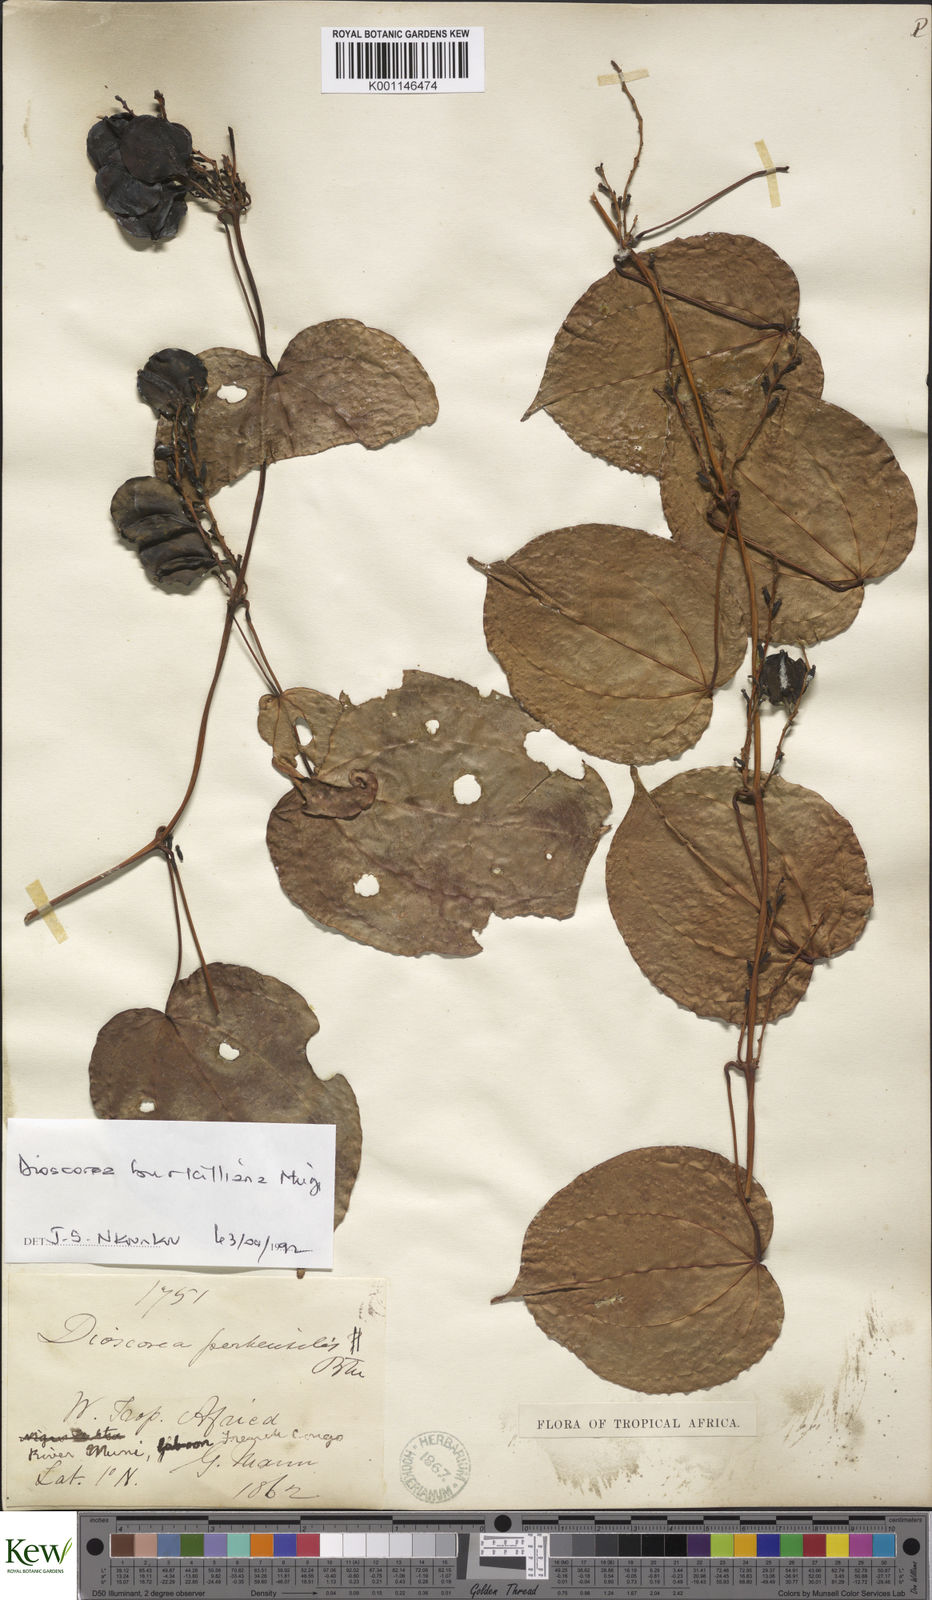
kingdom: Plantae
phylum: Tracheophyta
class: Liliopsida
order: Dioscoreales
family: Dioscoreaceae
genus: Dioscorea
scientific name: Dioscorea minutiflora
